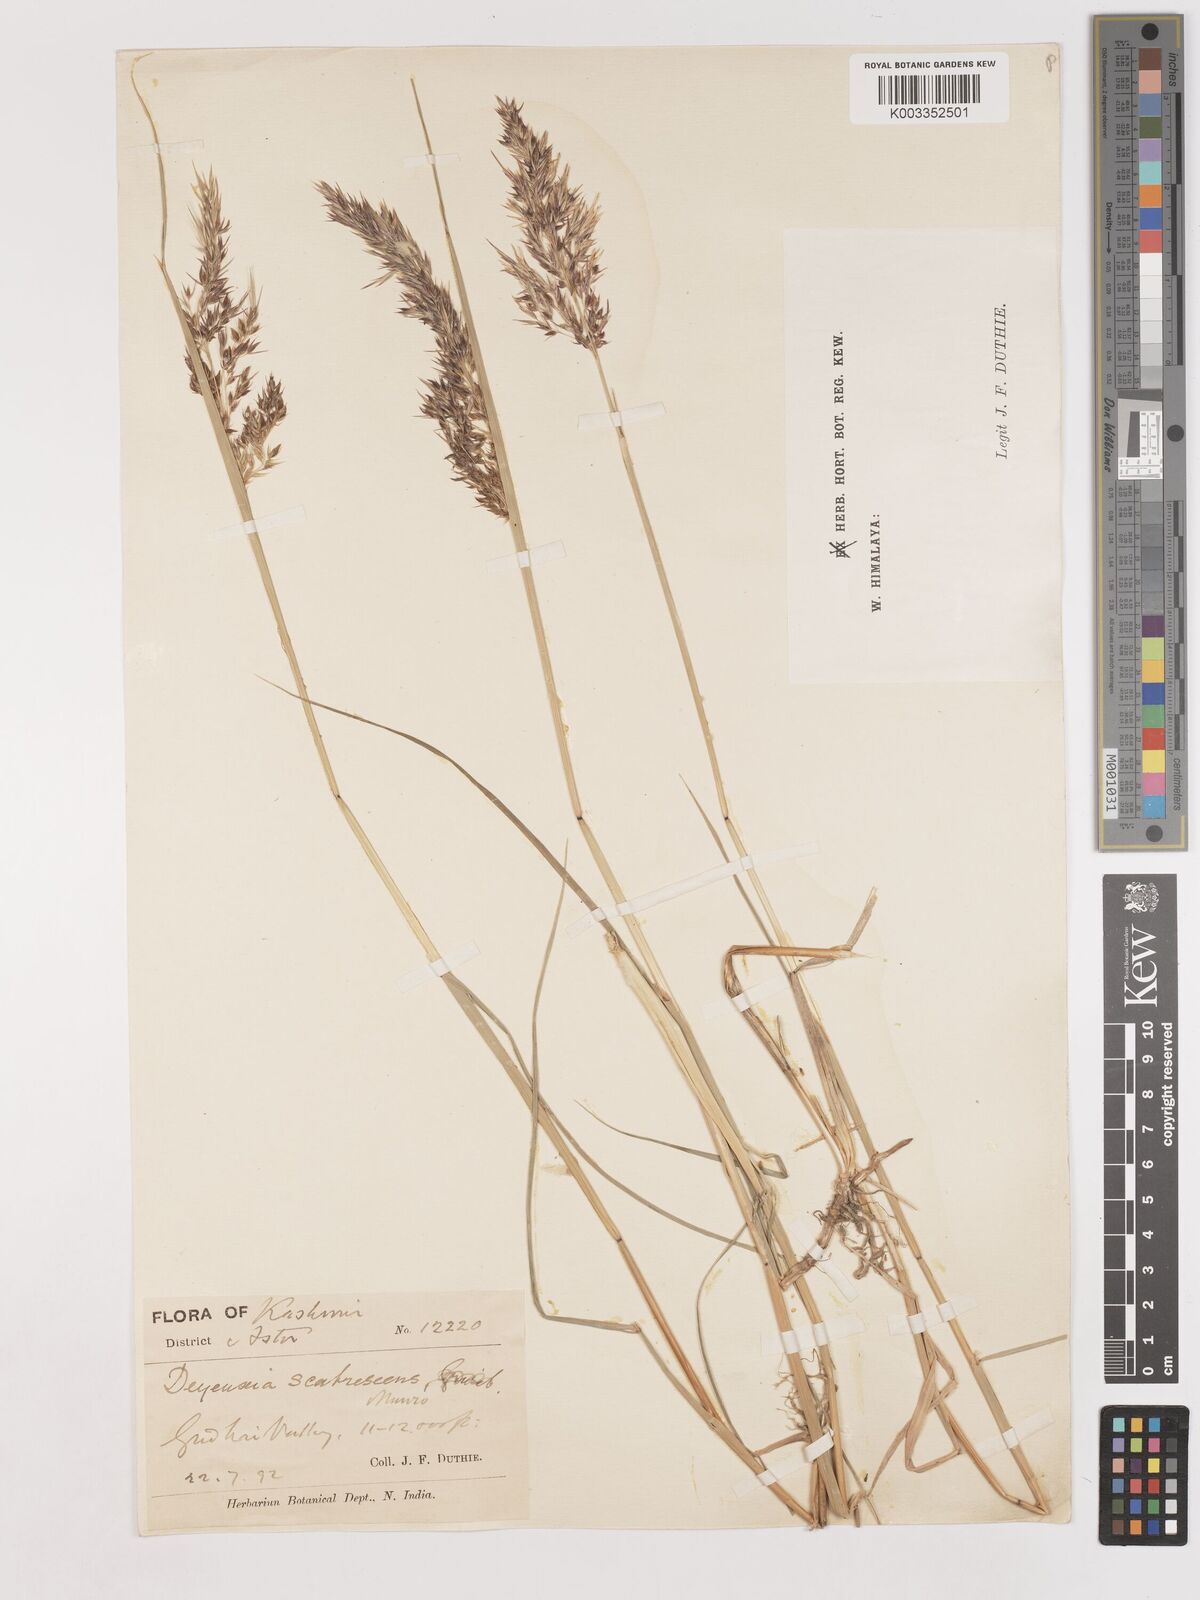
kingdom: Plantae
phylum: Tracheophyta
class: Liliopsida
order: Poales
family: Poaceae
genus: Calamagrostis
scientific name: Calamagrostis
